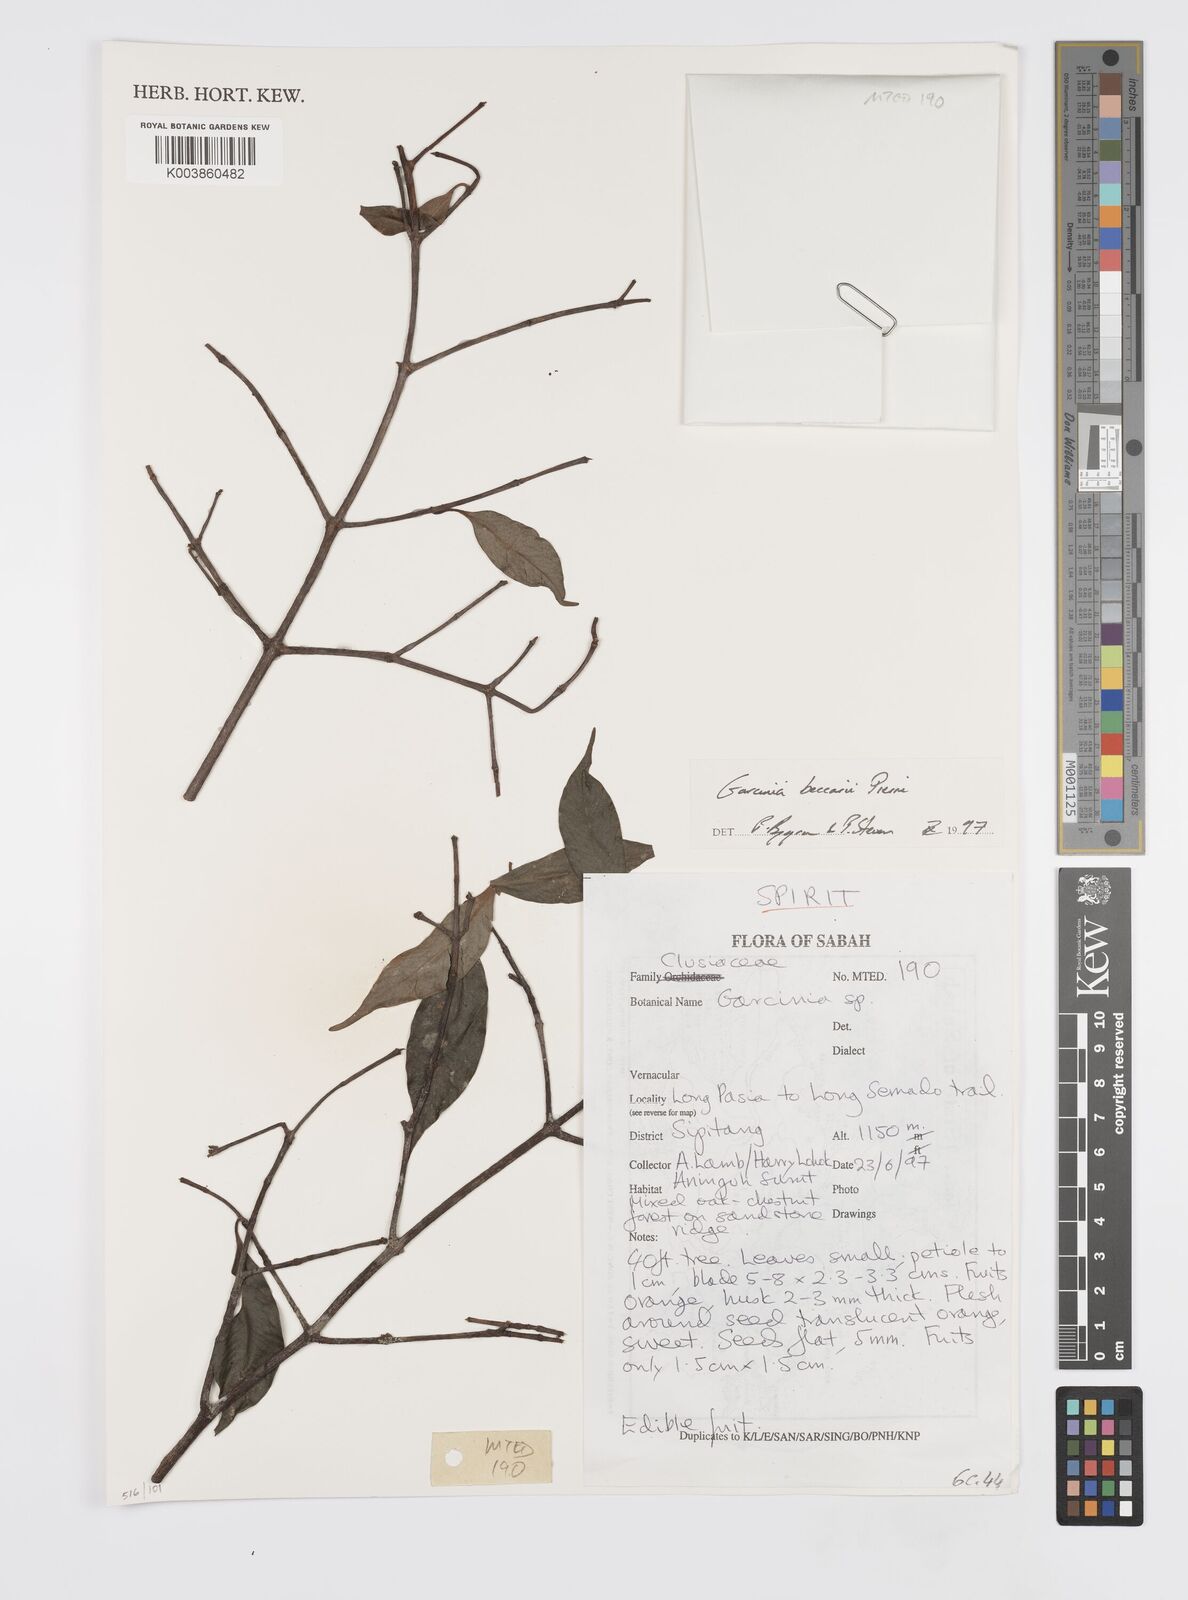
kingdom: Plantae
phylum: Tracheophyta
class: Magnoliopsida
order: Malpighiales
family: Clusiaceae
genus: Garcinia
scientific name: Garcinia beccarii
